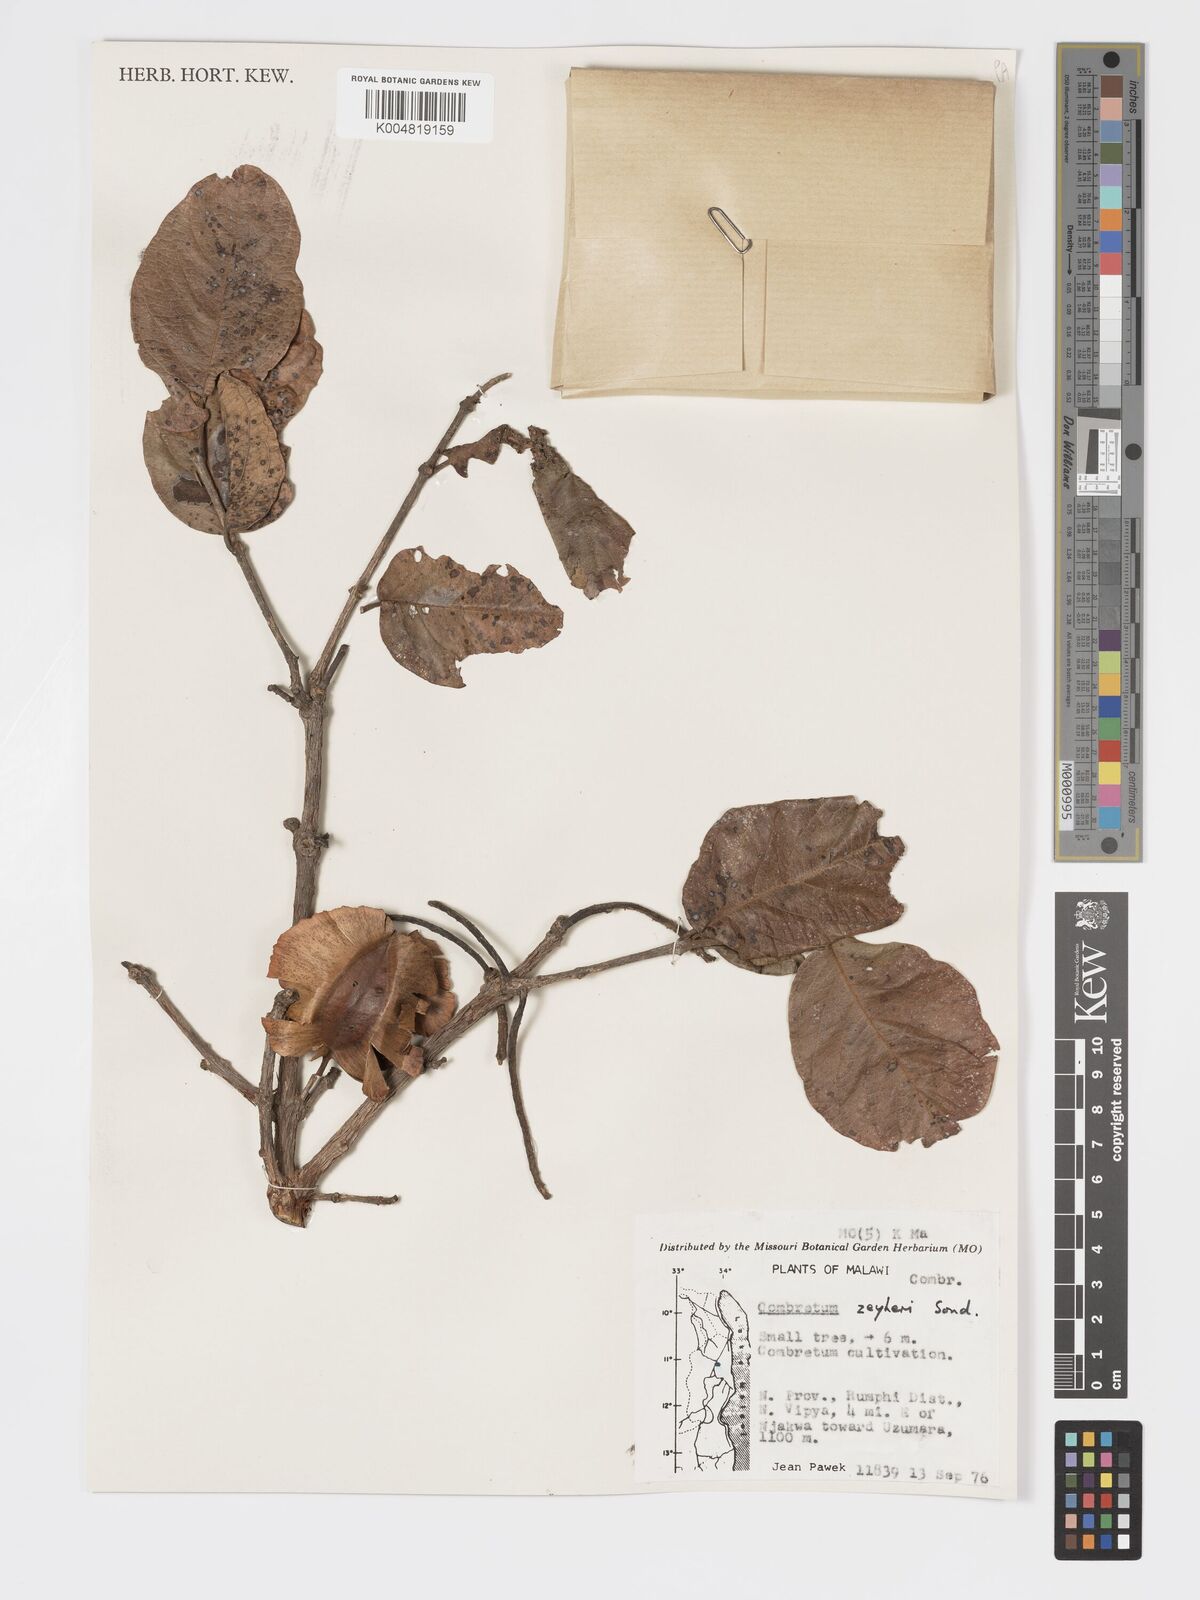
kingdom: Plantae
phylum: Tracheophyta
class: Magnoliopsida
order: Myrtales
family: Combretaceae
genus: Combretum
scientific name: Combretum zeyheri
